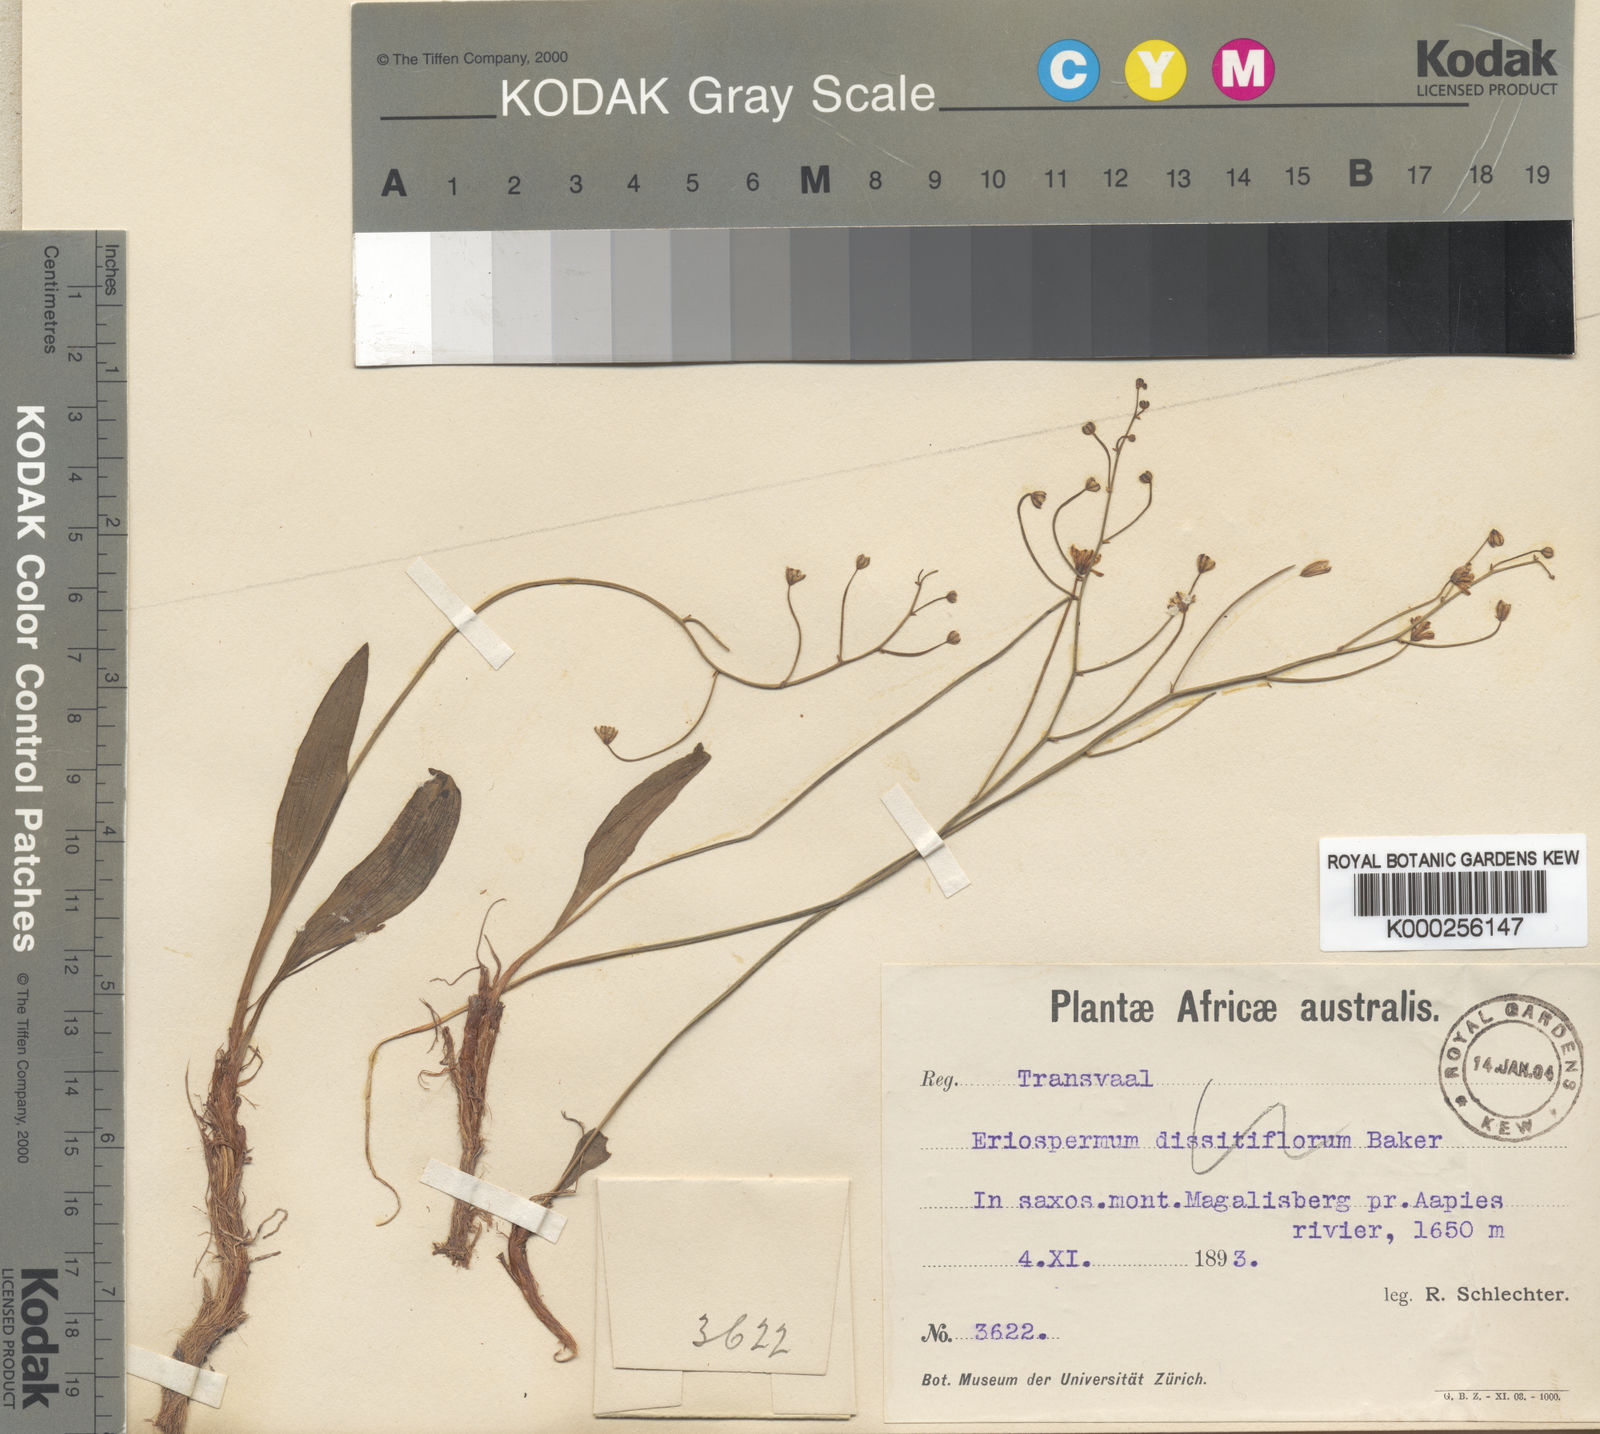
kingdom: Plantae
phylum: Tracheophyta
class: Liliopsida
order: Asparagales
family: Asparagaceae
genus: Eriospermum
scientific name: Eriospermum porphyrovalve
